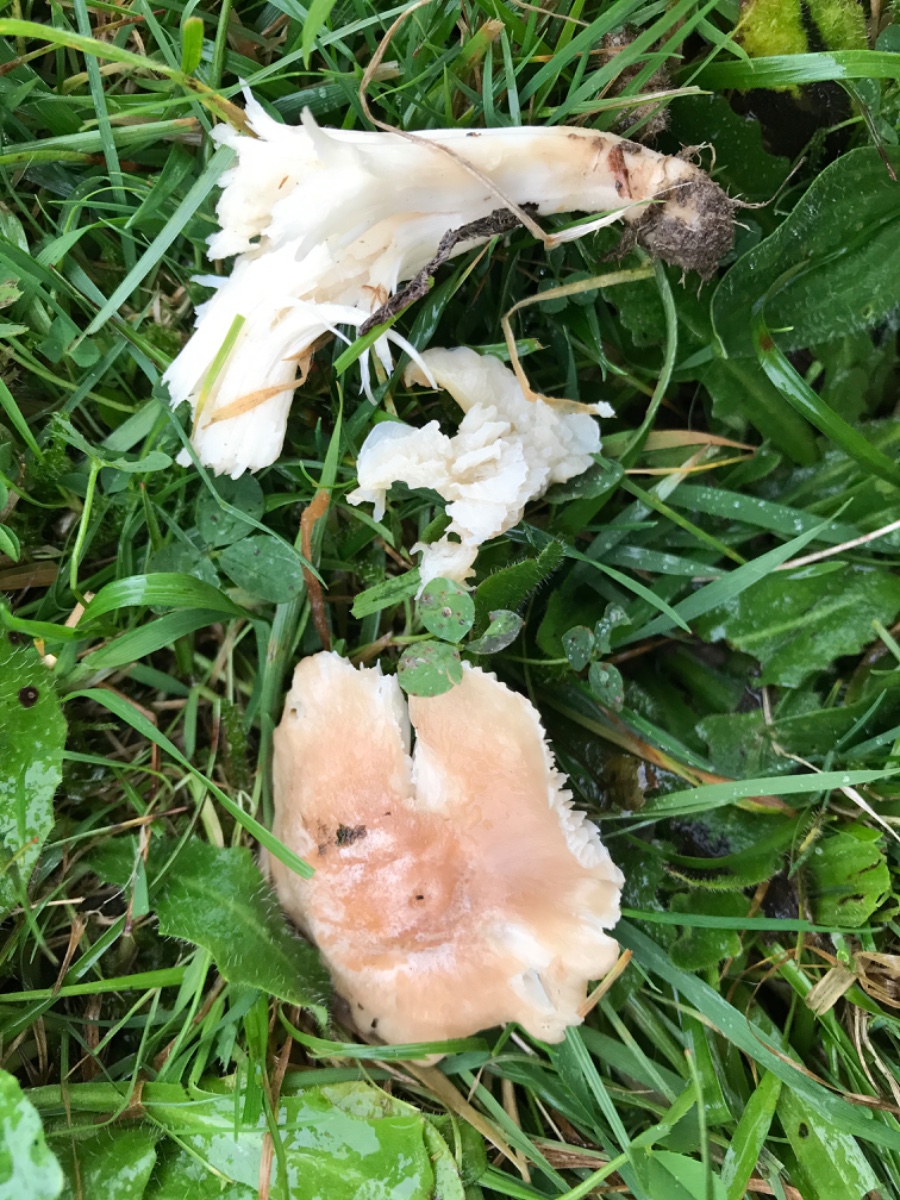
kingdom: Fungi
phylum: Basidiomycota
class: Agaricomycetes
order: Agaricales
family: Hygrophoraceae
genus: Cuphophyllus
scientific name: Cuphophyllus
